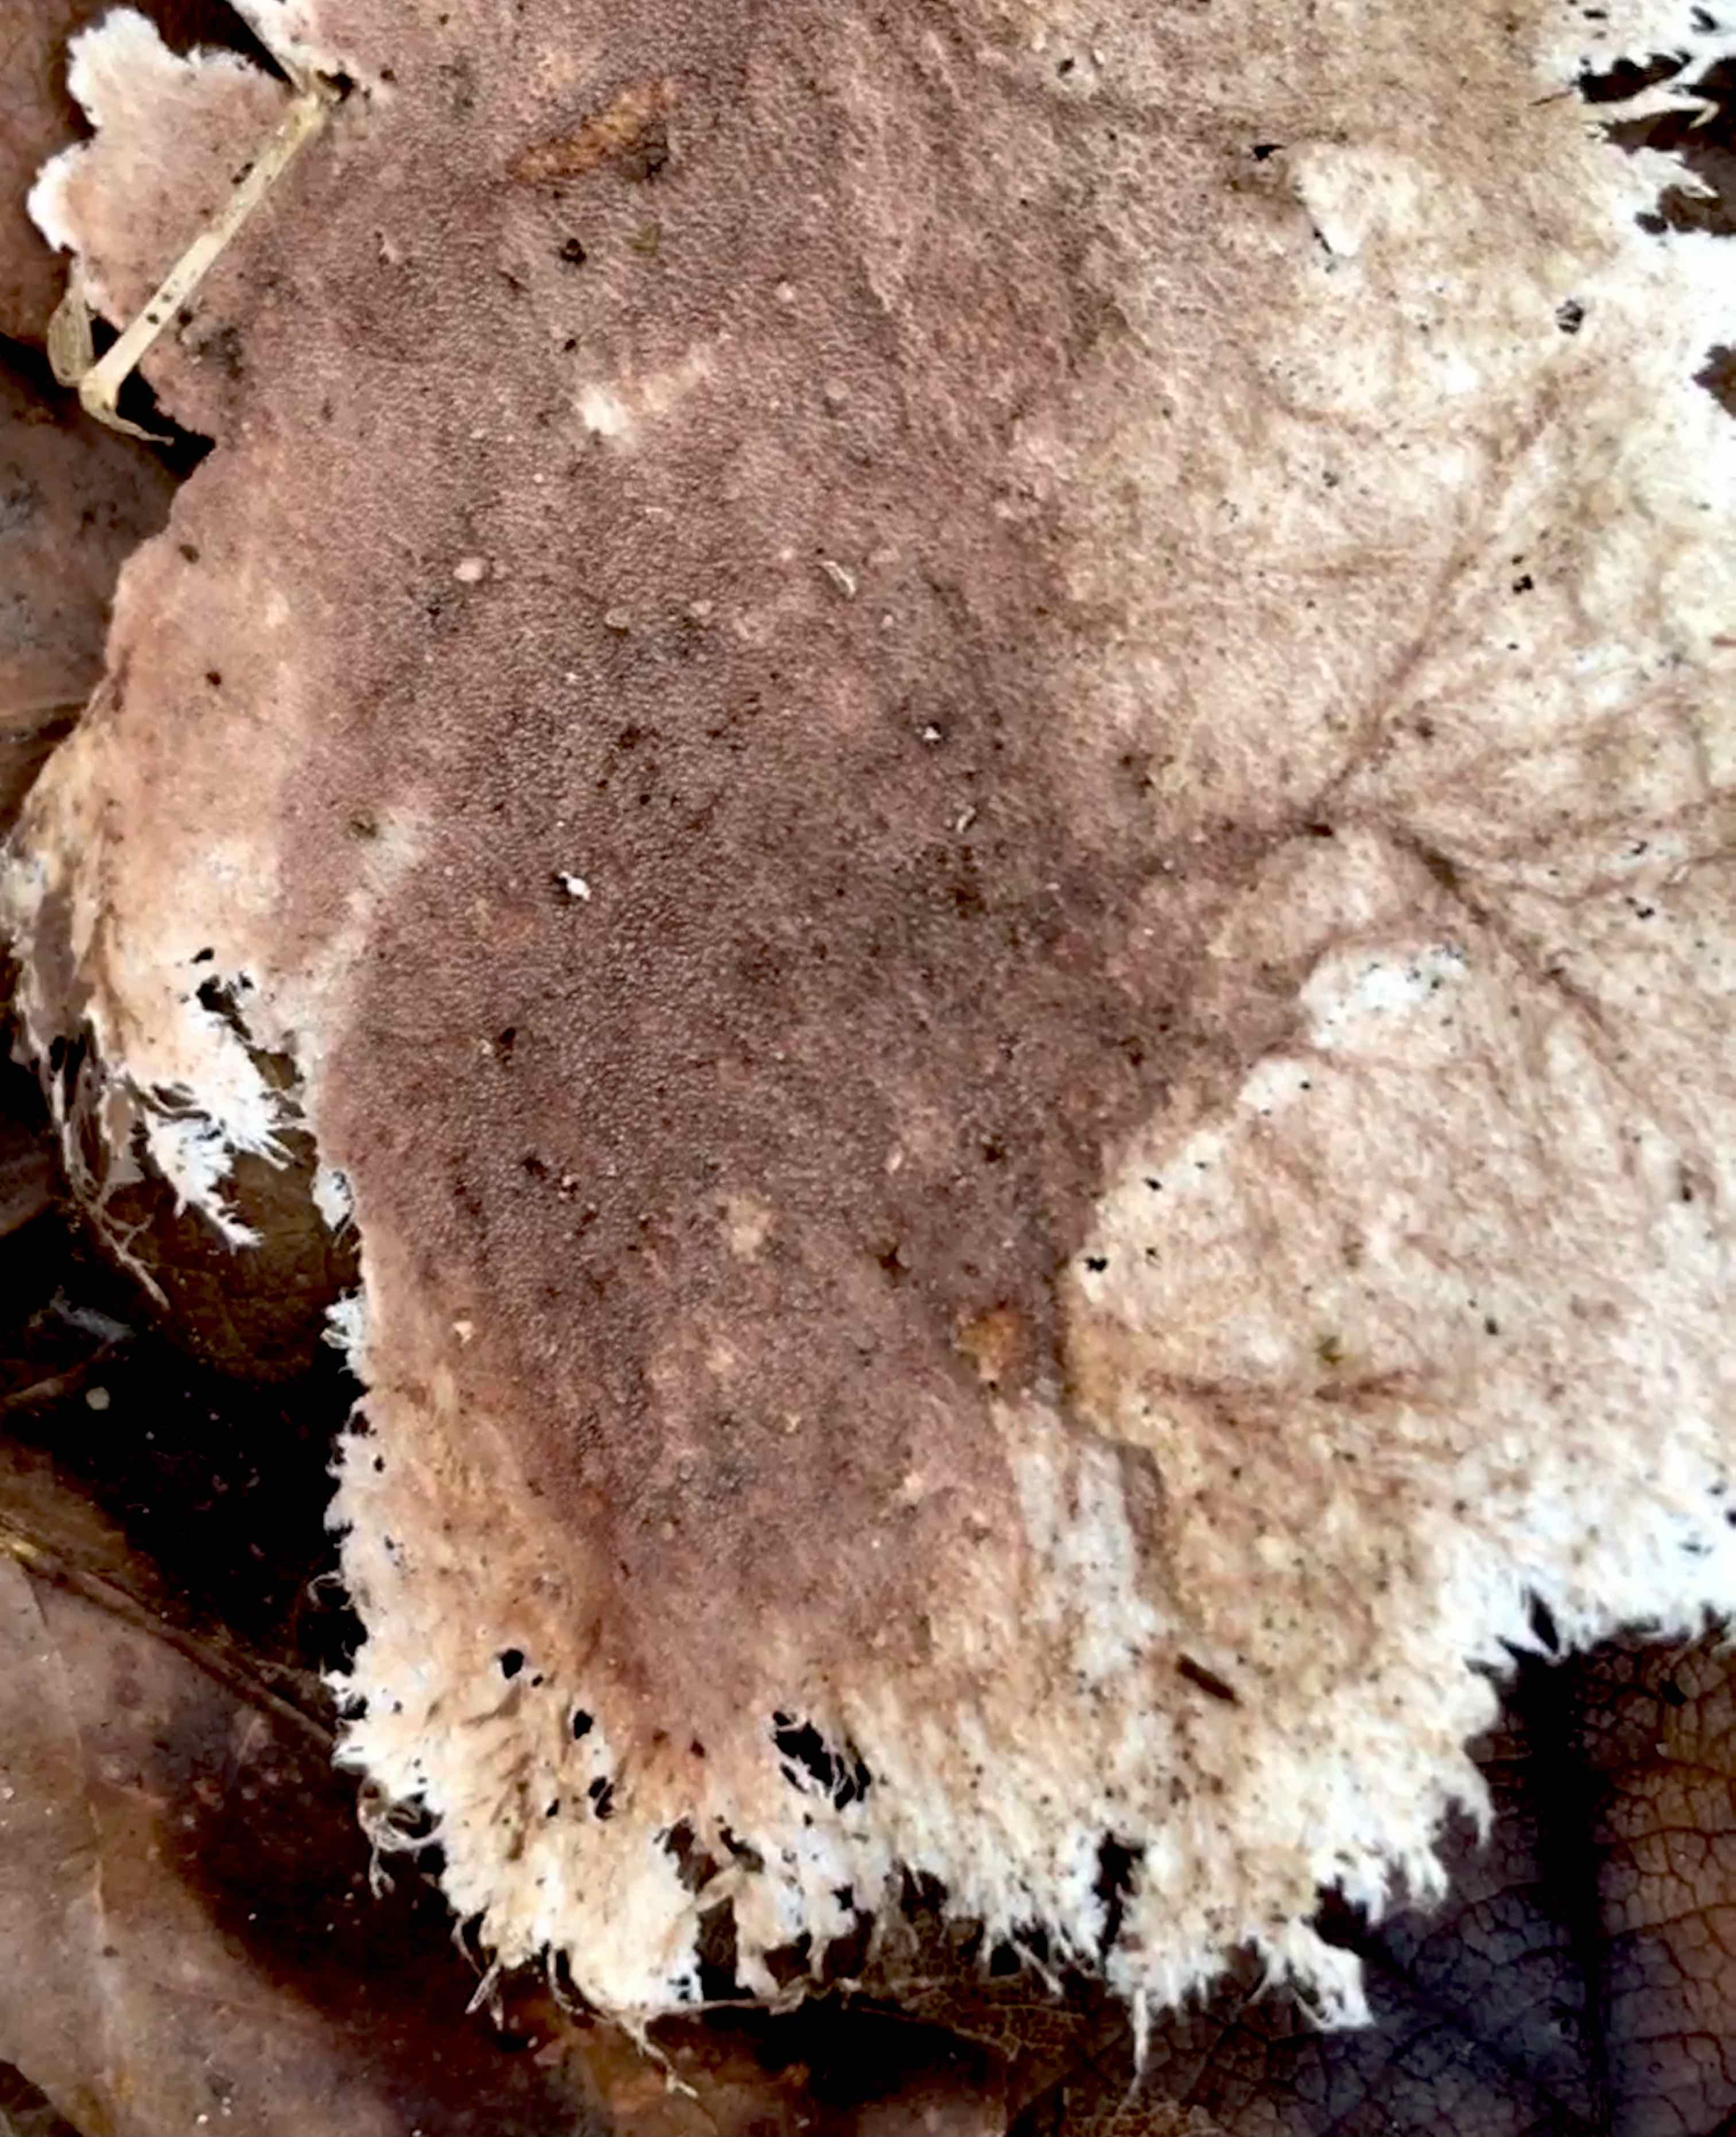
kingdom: Fungi
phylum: Basidiomycota
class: Agaricomycetes
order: Polyporales
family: Steccherinaceae
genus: Steccherinum
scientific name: Steccherinum fimbriatum
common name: trådet skønpig
